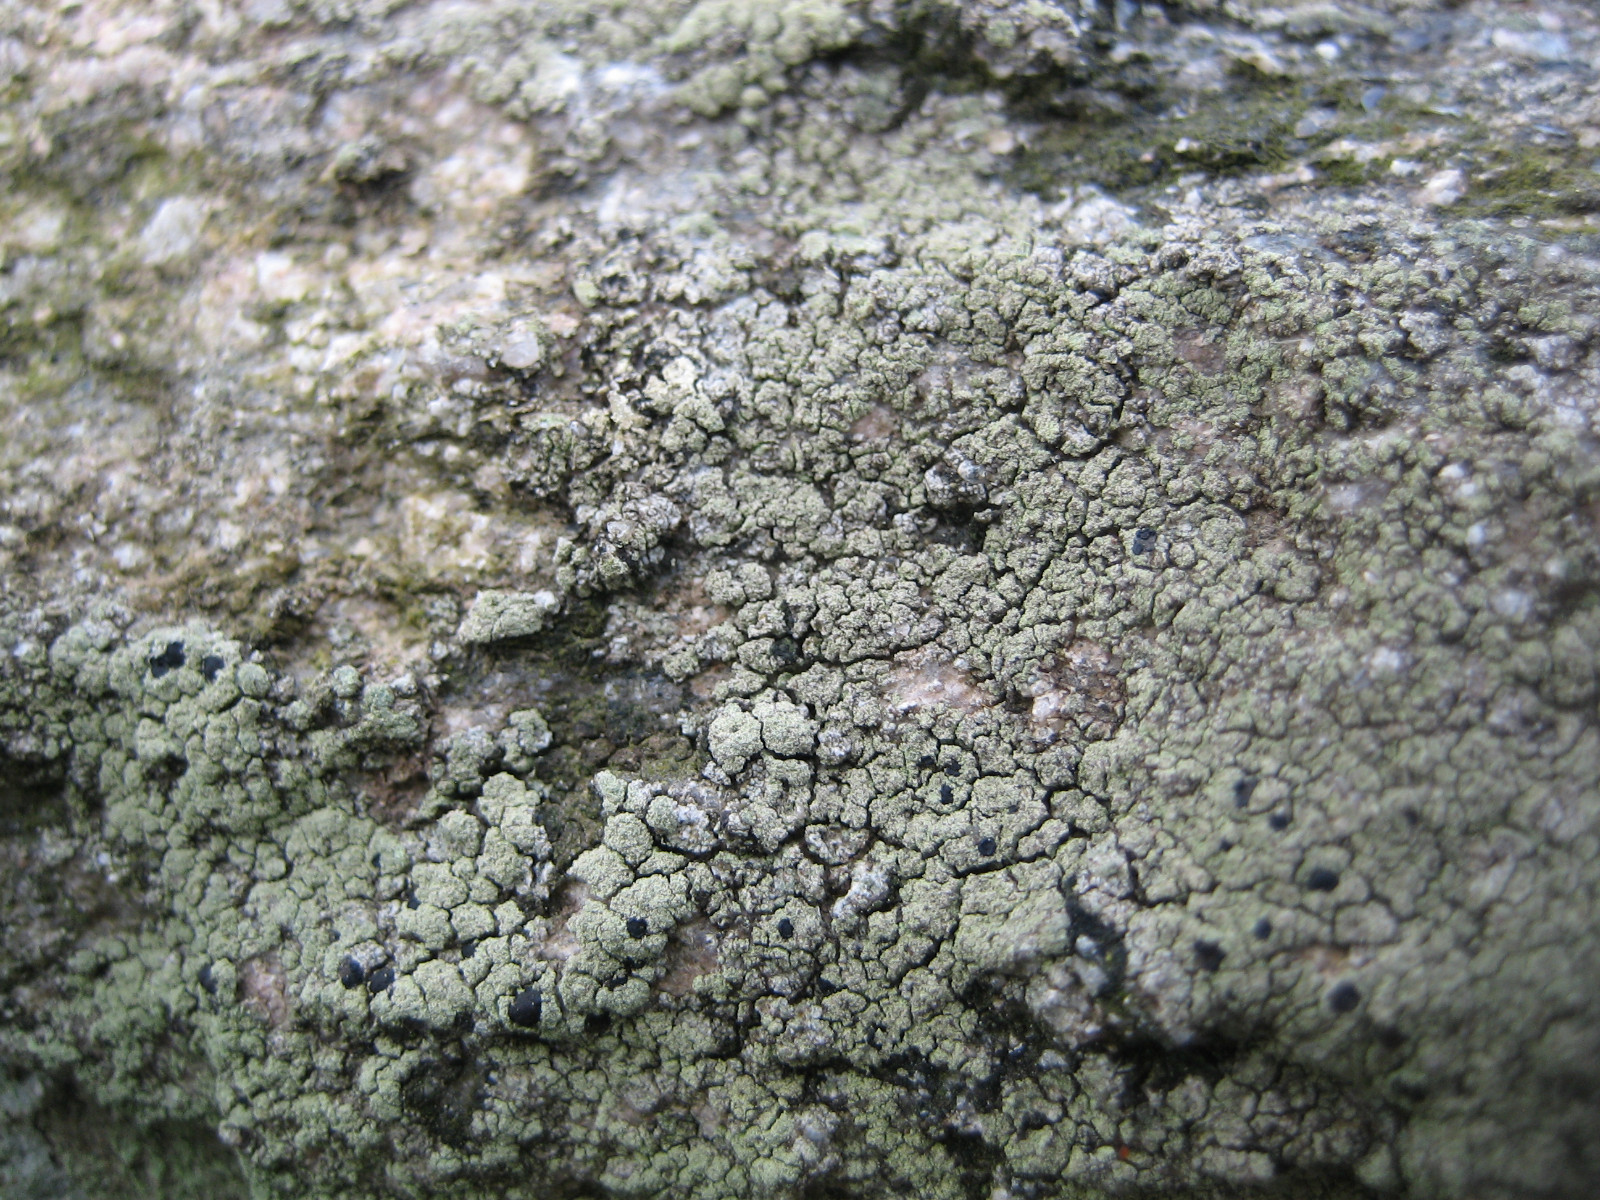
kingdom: Fungi
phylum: Ascomycota
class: Lecanoromycetes
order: Lecanorales
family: Lecanoraceae
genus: Lecidella
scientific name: Lecidella scabra
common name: skurvet skivelav
